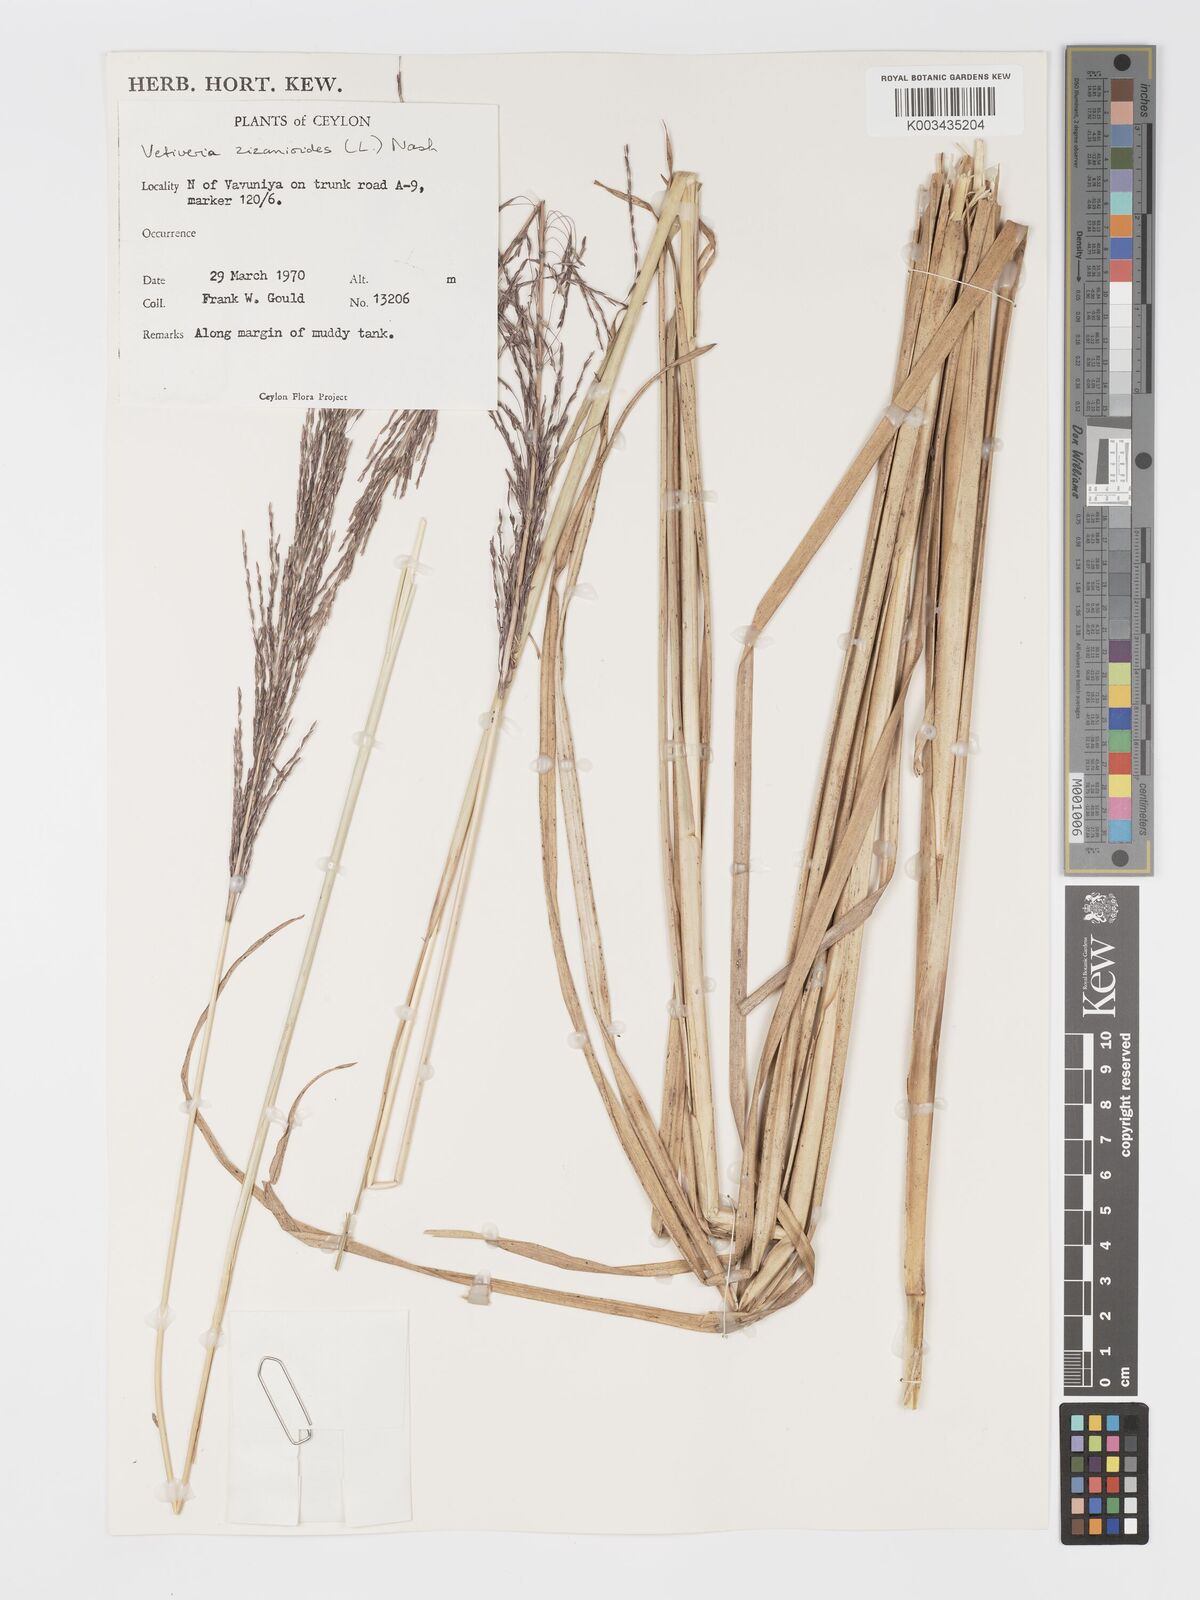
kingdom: Plantae
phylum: Tracheophyta
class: Liliopsida
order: Poales
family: Poaceae
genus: Chrysopogon
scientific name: Chrysopogon zizanioides
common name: False beardgrass
